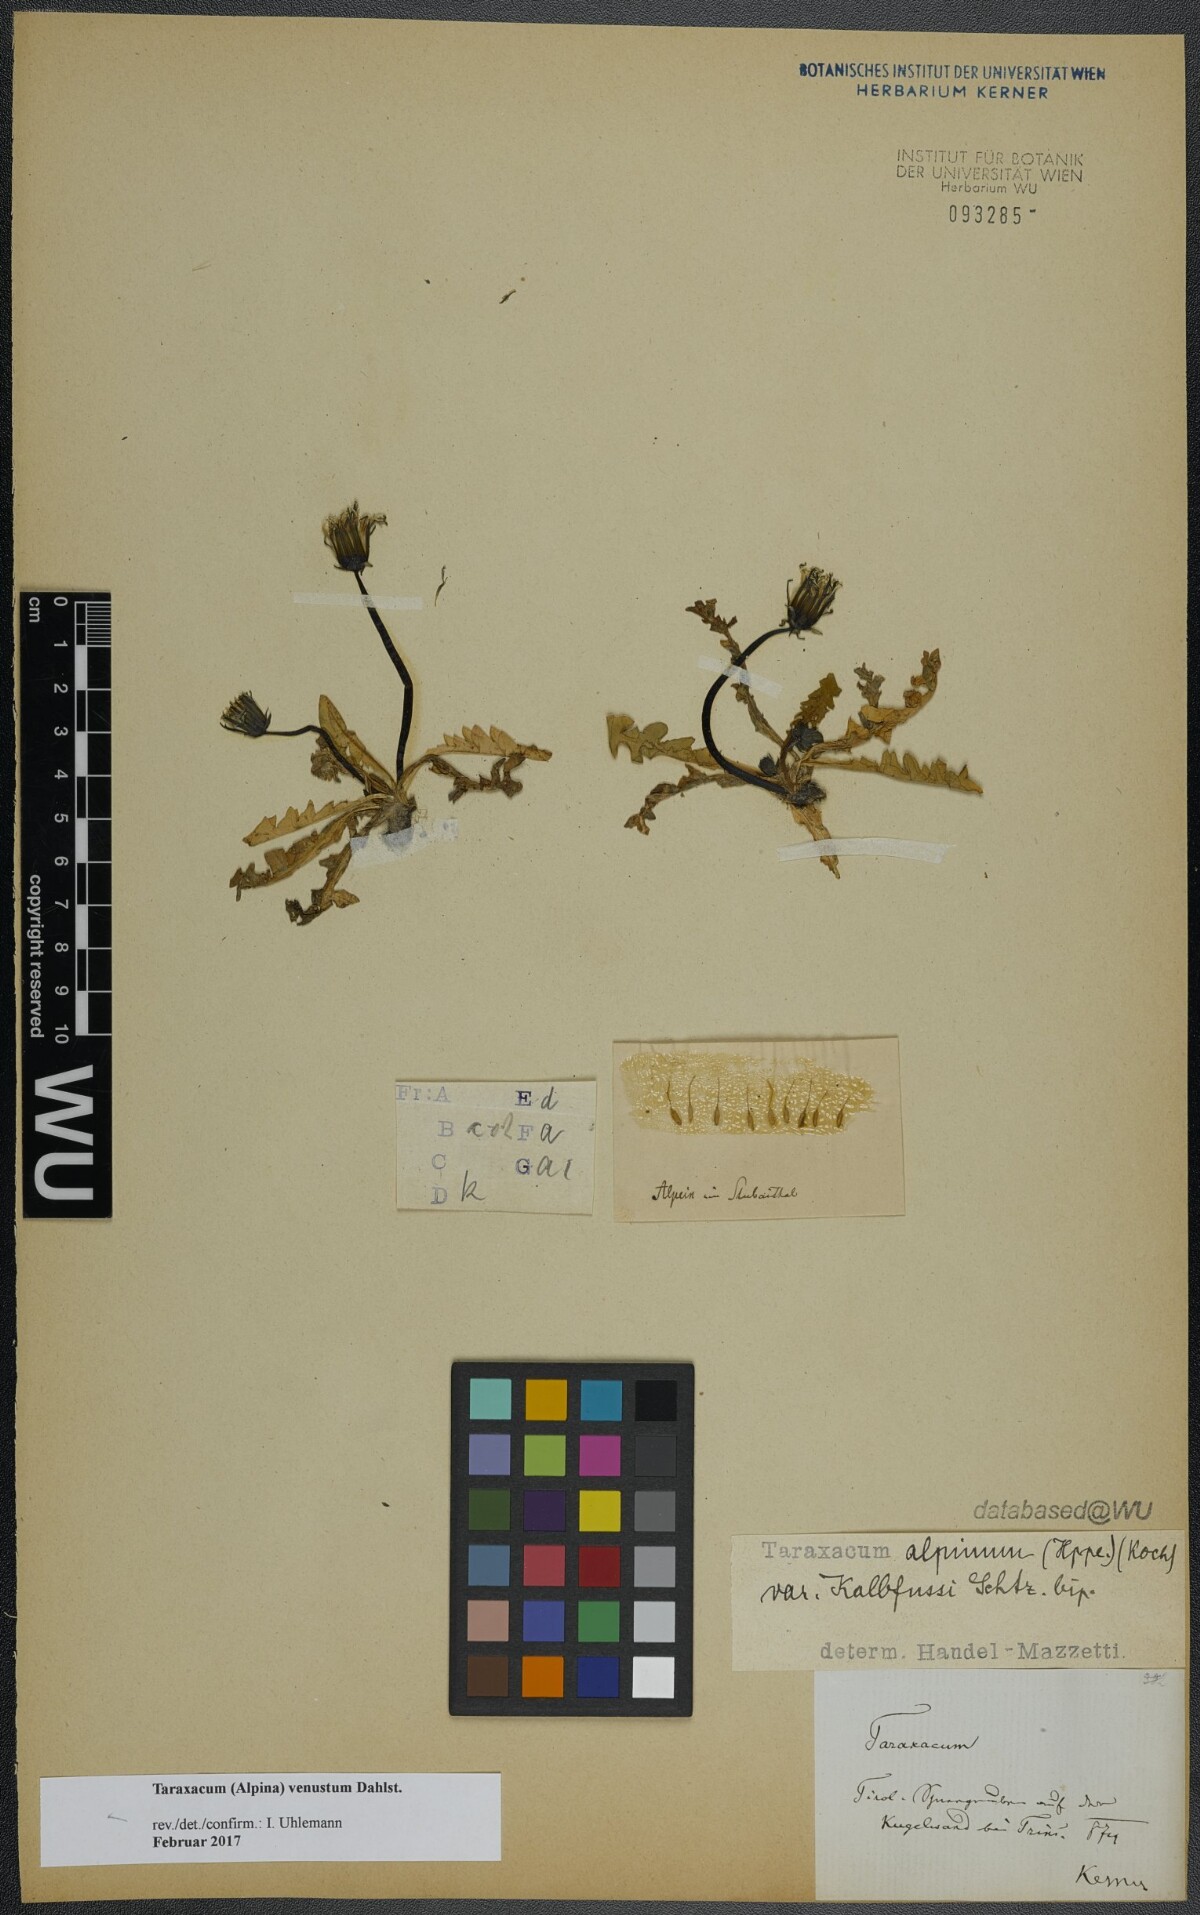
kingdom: Plantae
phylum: Tracheophyta
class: Magnoliopsida
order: Asterales
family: Asteraceae
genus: Taraxacum
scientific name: Taraxacum venustum
